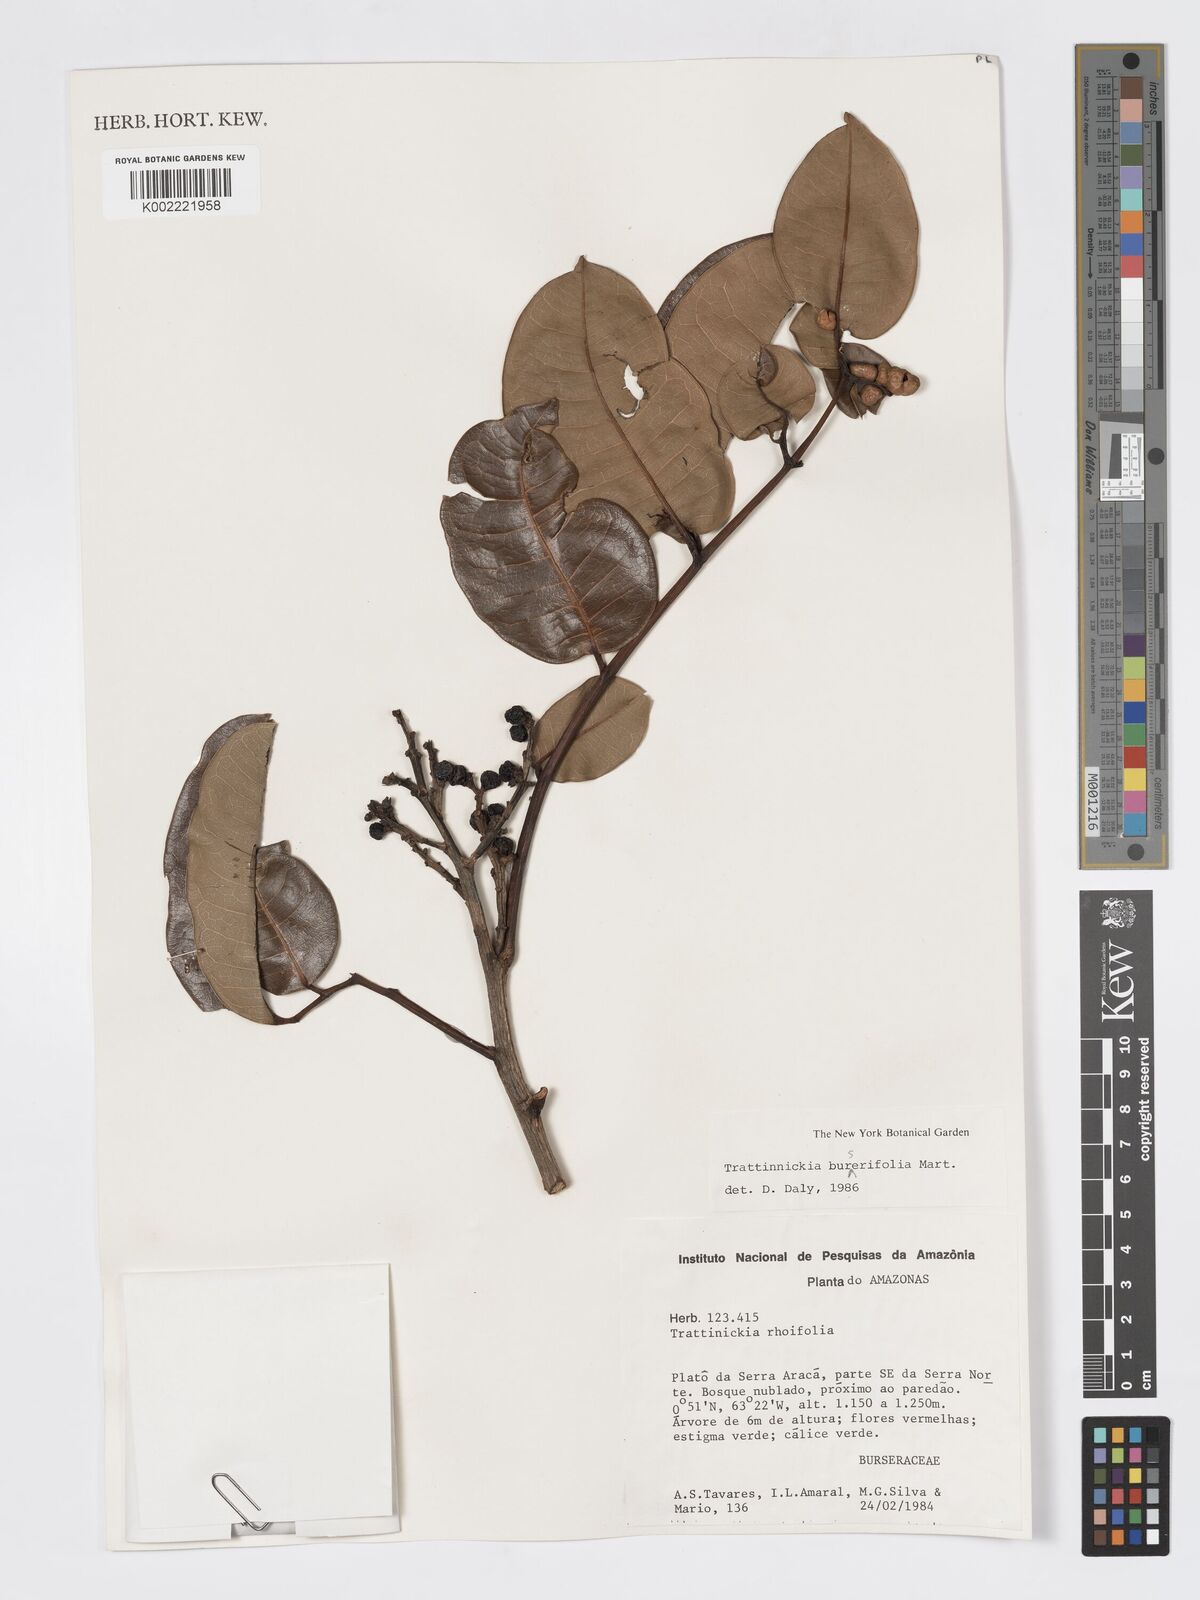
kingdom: Plantae
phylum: Tracheophyta
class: Magnoliopsida
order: Sapindales
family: Burseraceae
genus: Trattinnickia
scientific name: Trattinnickia burserifolia
